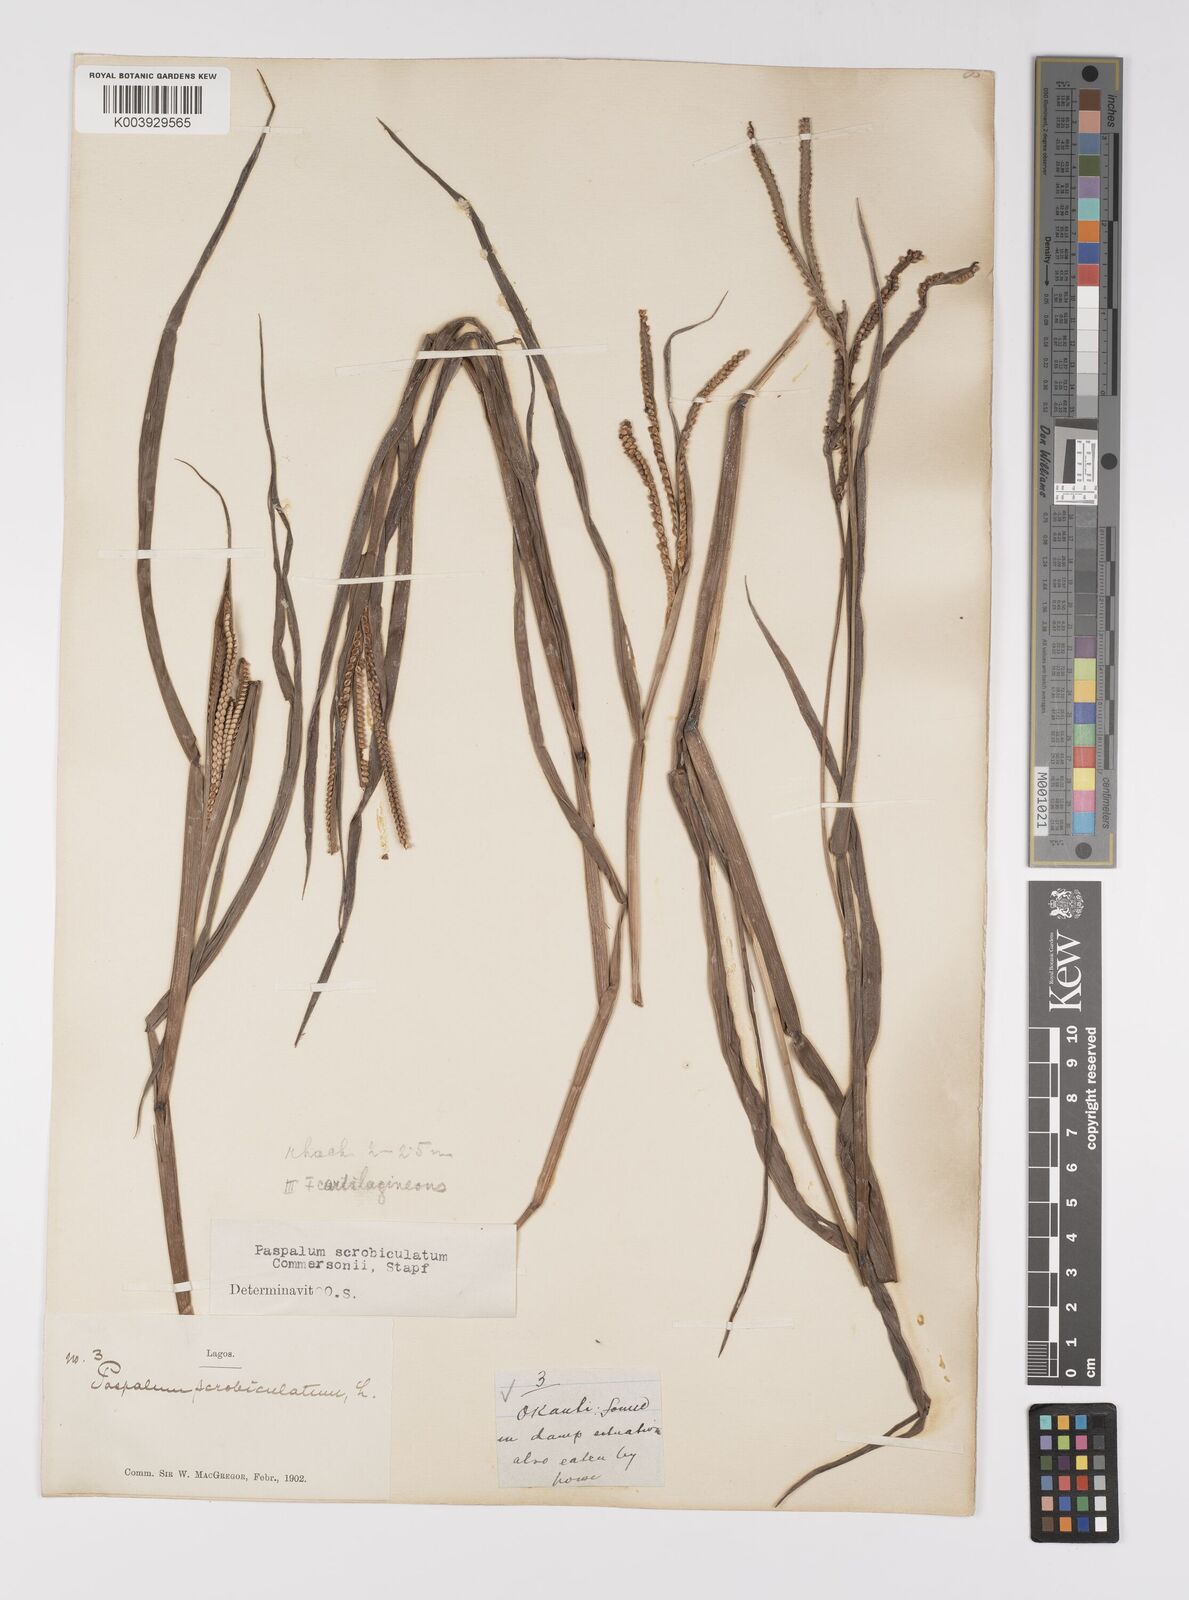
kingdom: Plantae
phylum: Tracheophyta
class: Liliopsida
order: Poales
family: Poaceae
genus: Paspalum
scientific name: Paspalum scrobiculatum
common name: Kodo millet
